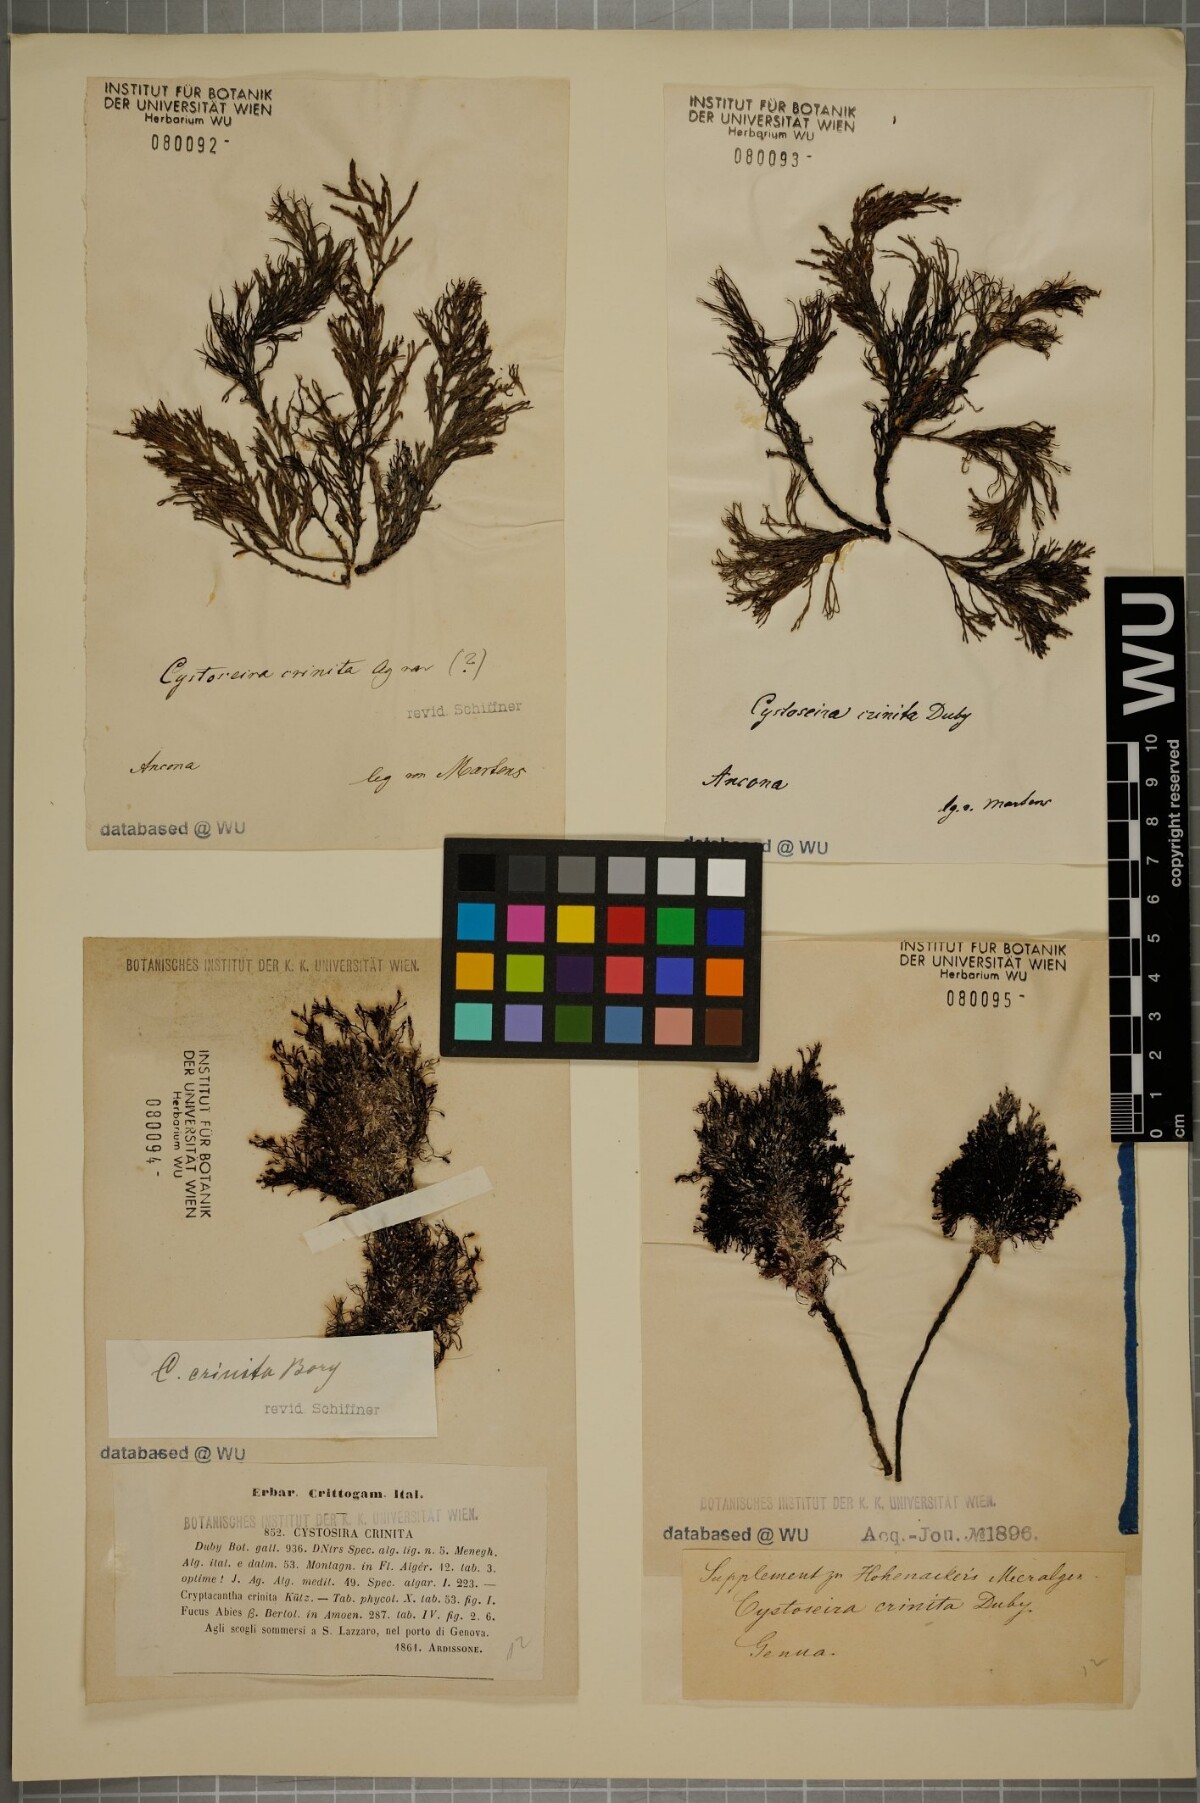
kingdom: Chromista
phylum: Ochrophyta
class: Phaeophyceae
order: Fucales
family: Sargassaceae
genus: Cystoseira
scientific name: Cystoseira Ericaria crinita
